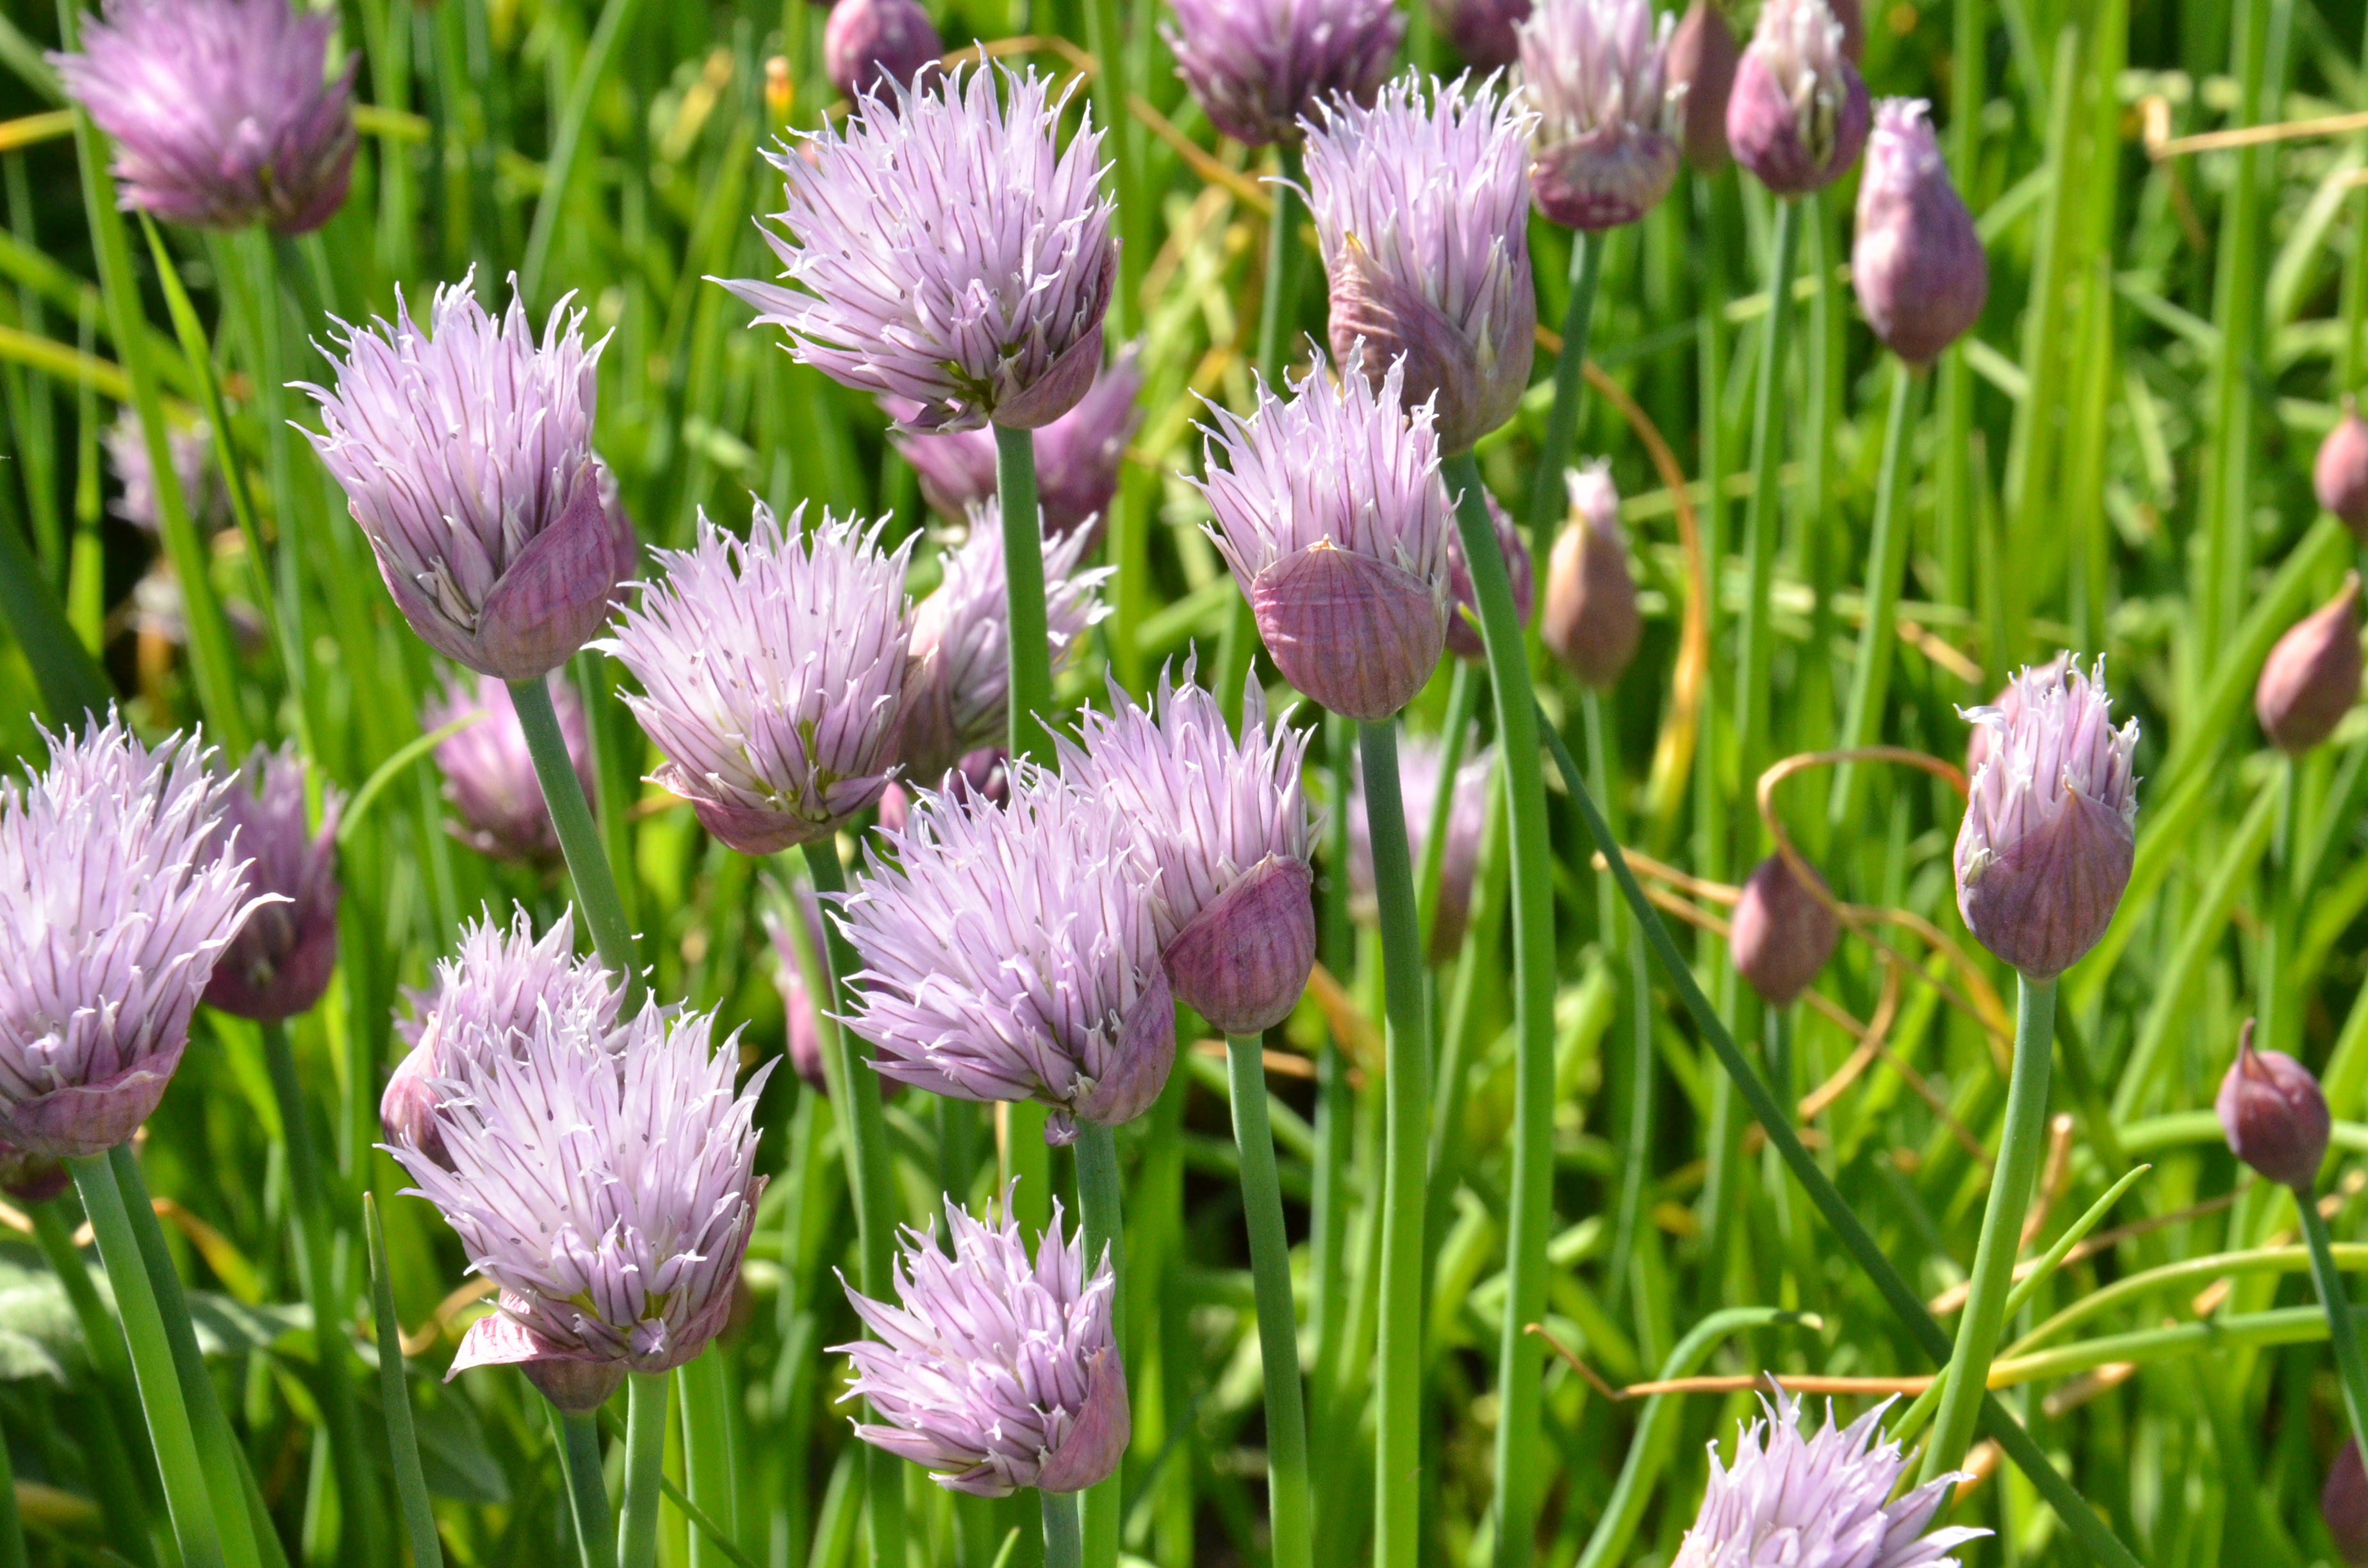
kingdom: Plantae
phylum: Tracheophyta
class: Liliopsida
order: Asparagales
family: Amaryllidaceae
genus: Allium
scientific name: Allium schoenoprasum
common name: Chives
